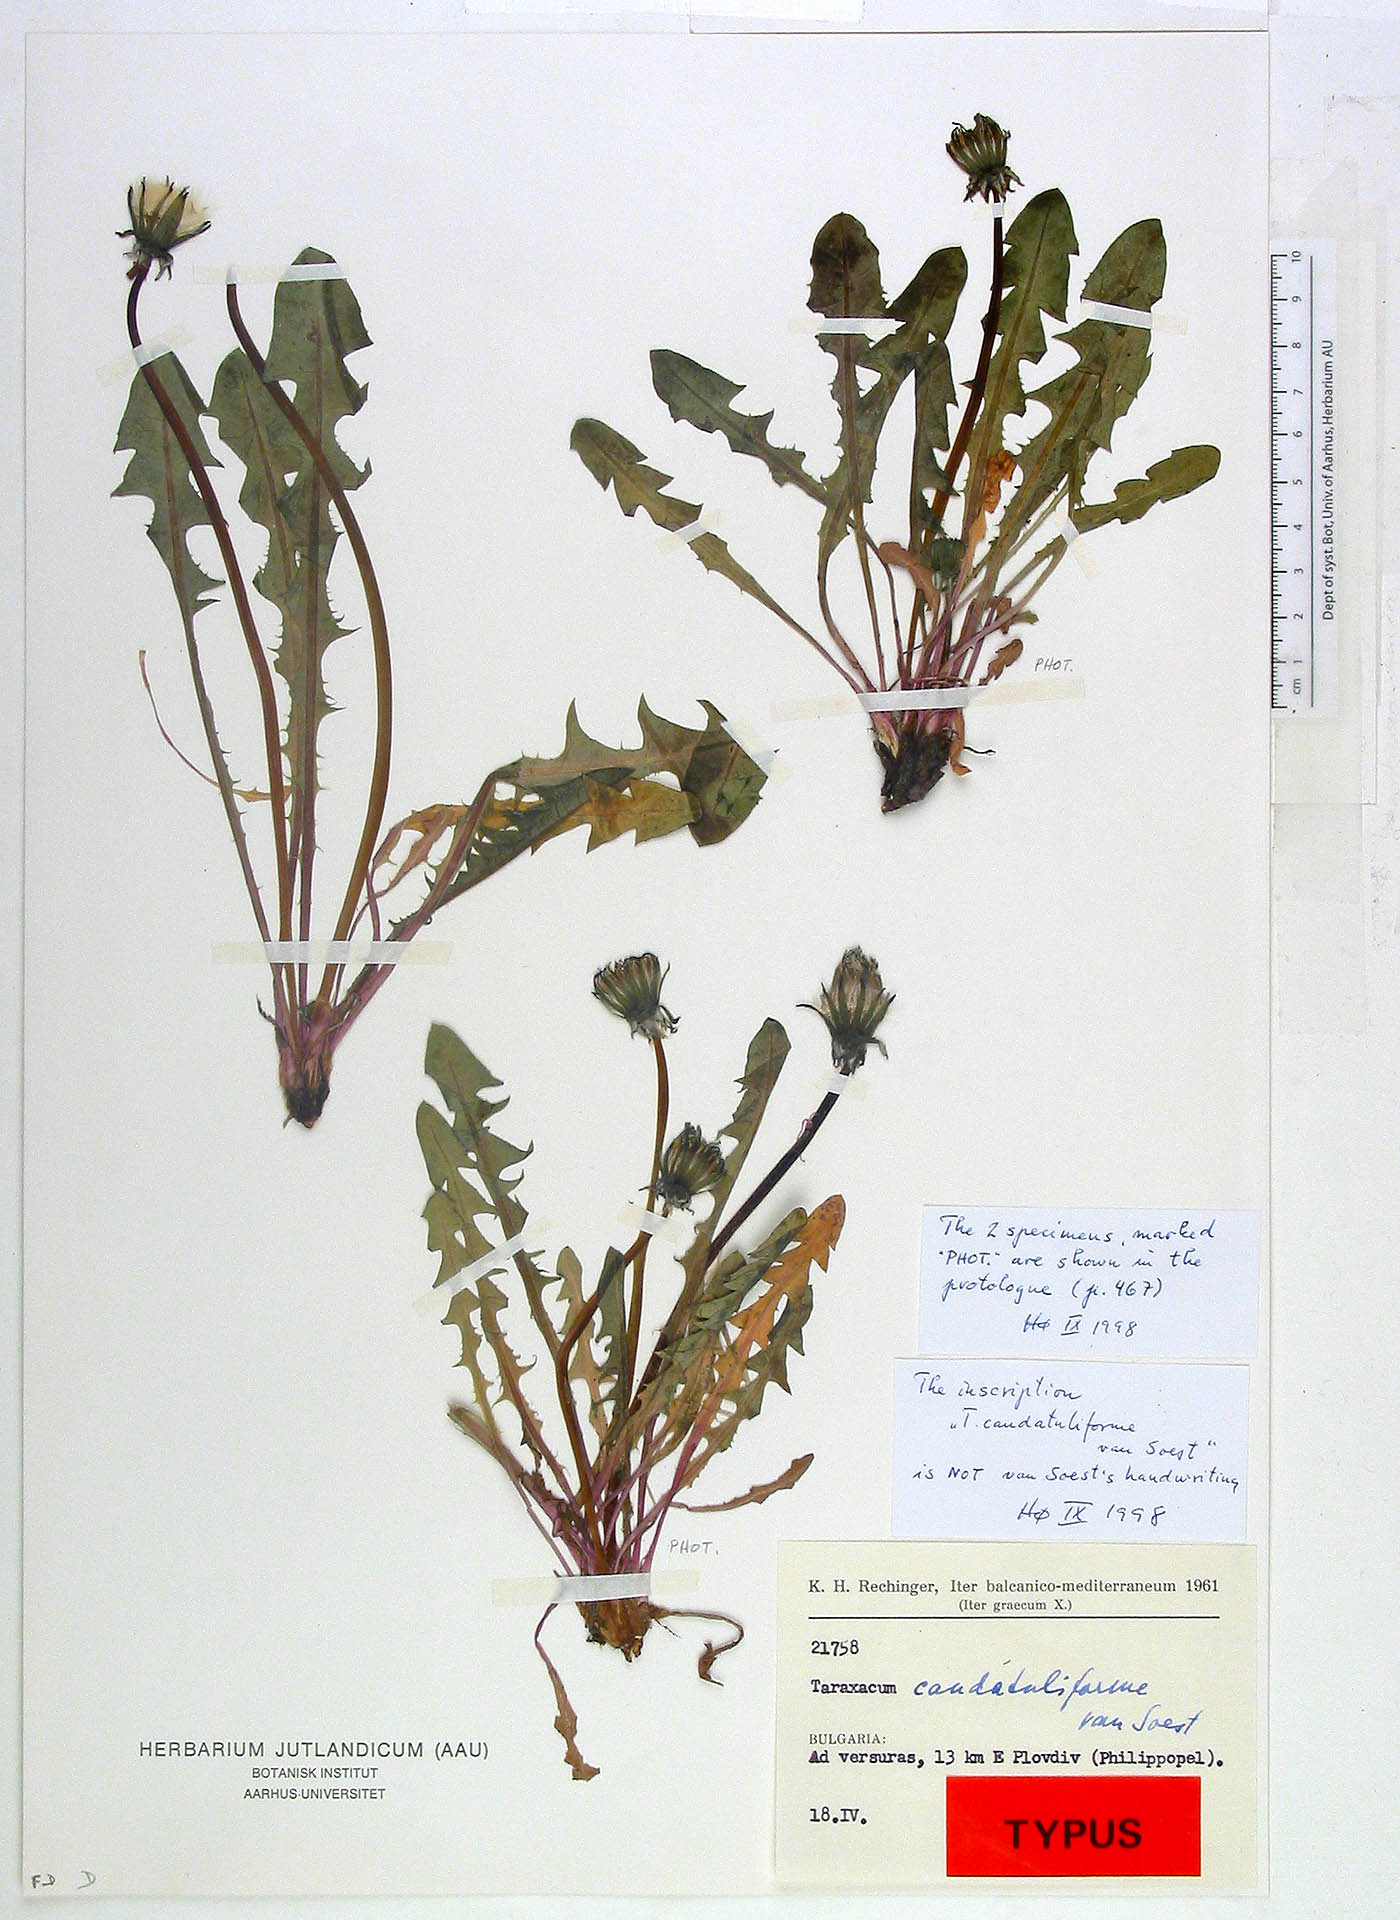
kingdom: Plantae
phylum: Tracheophyta
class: Magnoliopsida
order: Asterales
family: Asteraceae
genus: Taraxacum
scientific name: Taraxacum caudatuliforme
